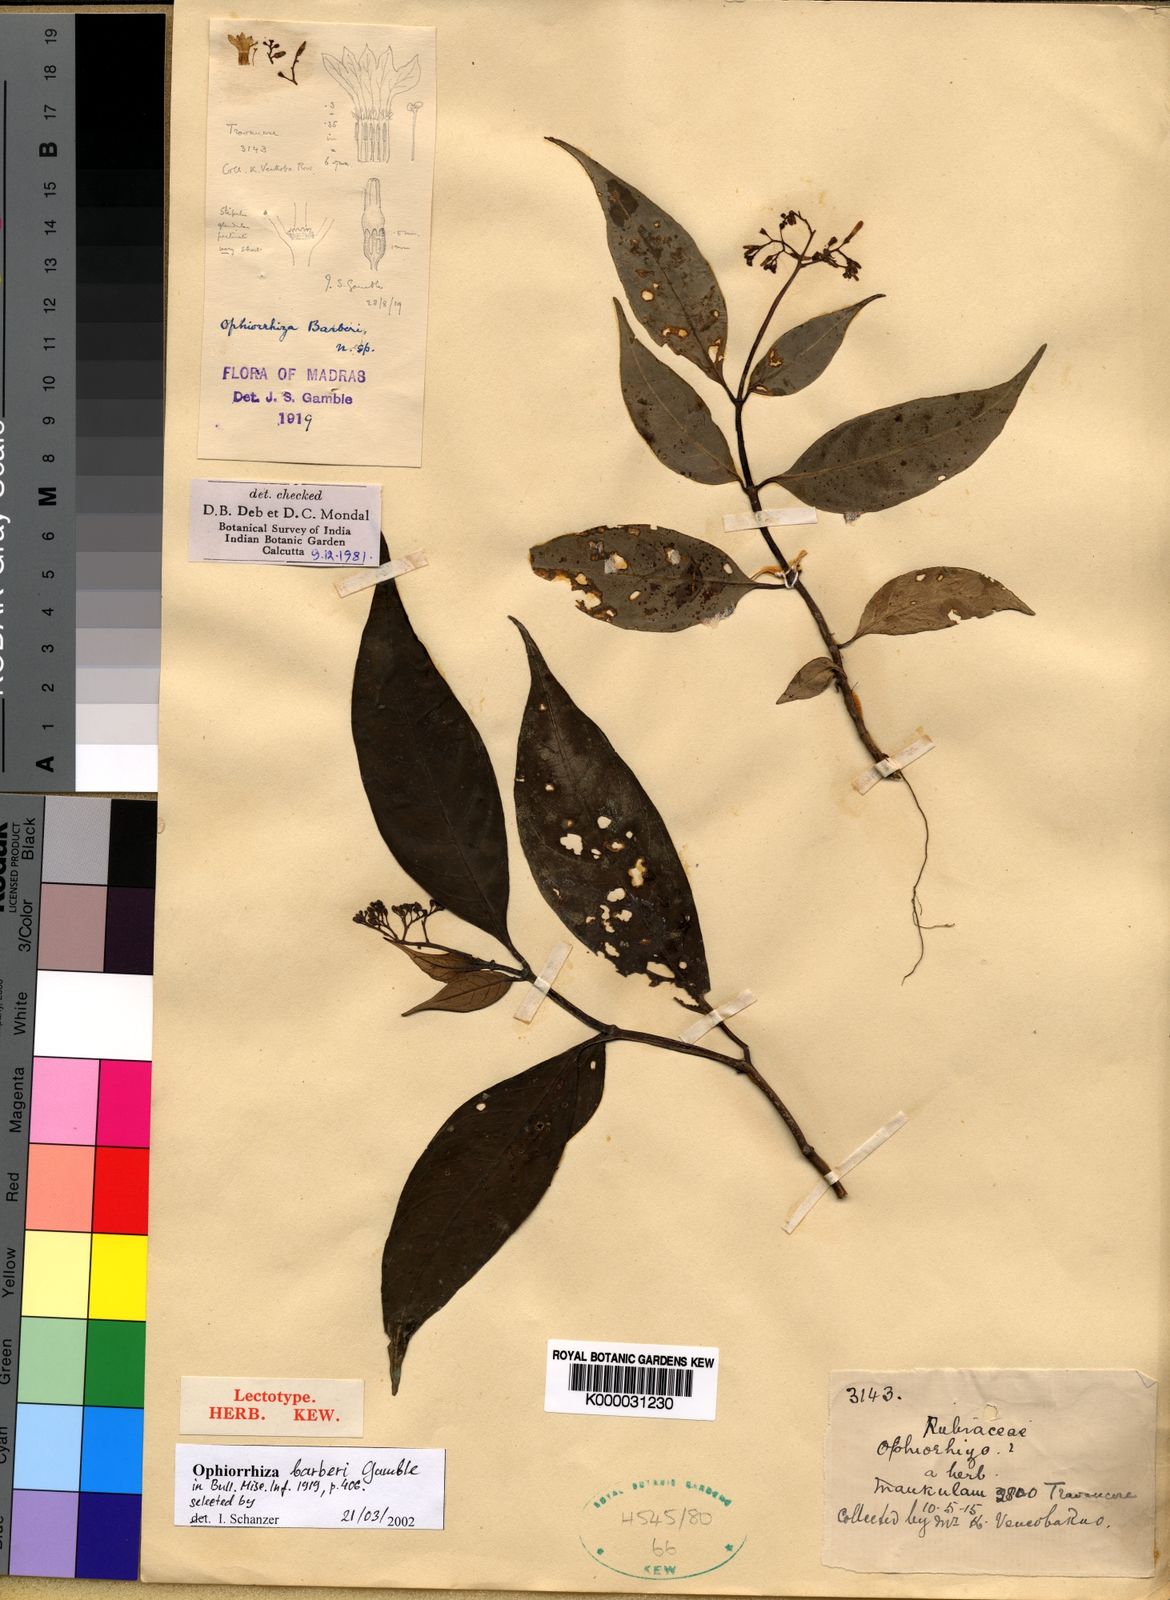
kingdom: Plantae
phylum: Tracheophyta
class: Magnoliopsida
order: Gentianales
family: Rubiaceae
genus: Ophiorrhiza
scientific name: Ophiorrhiza barberi
